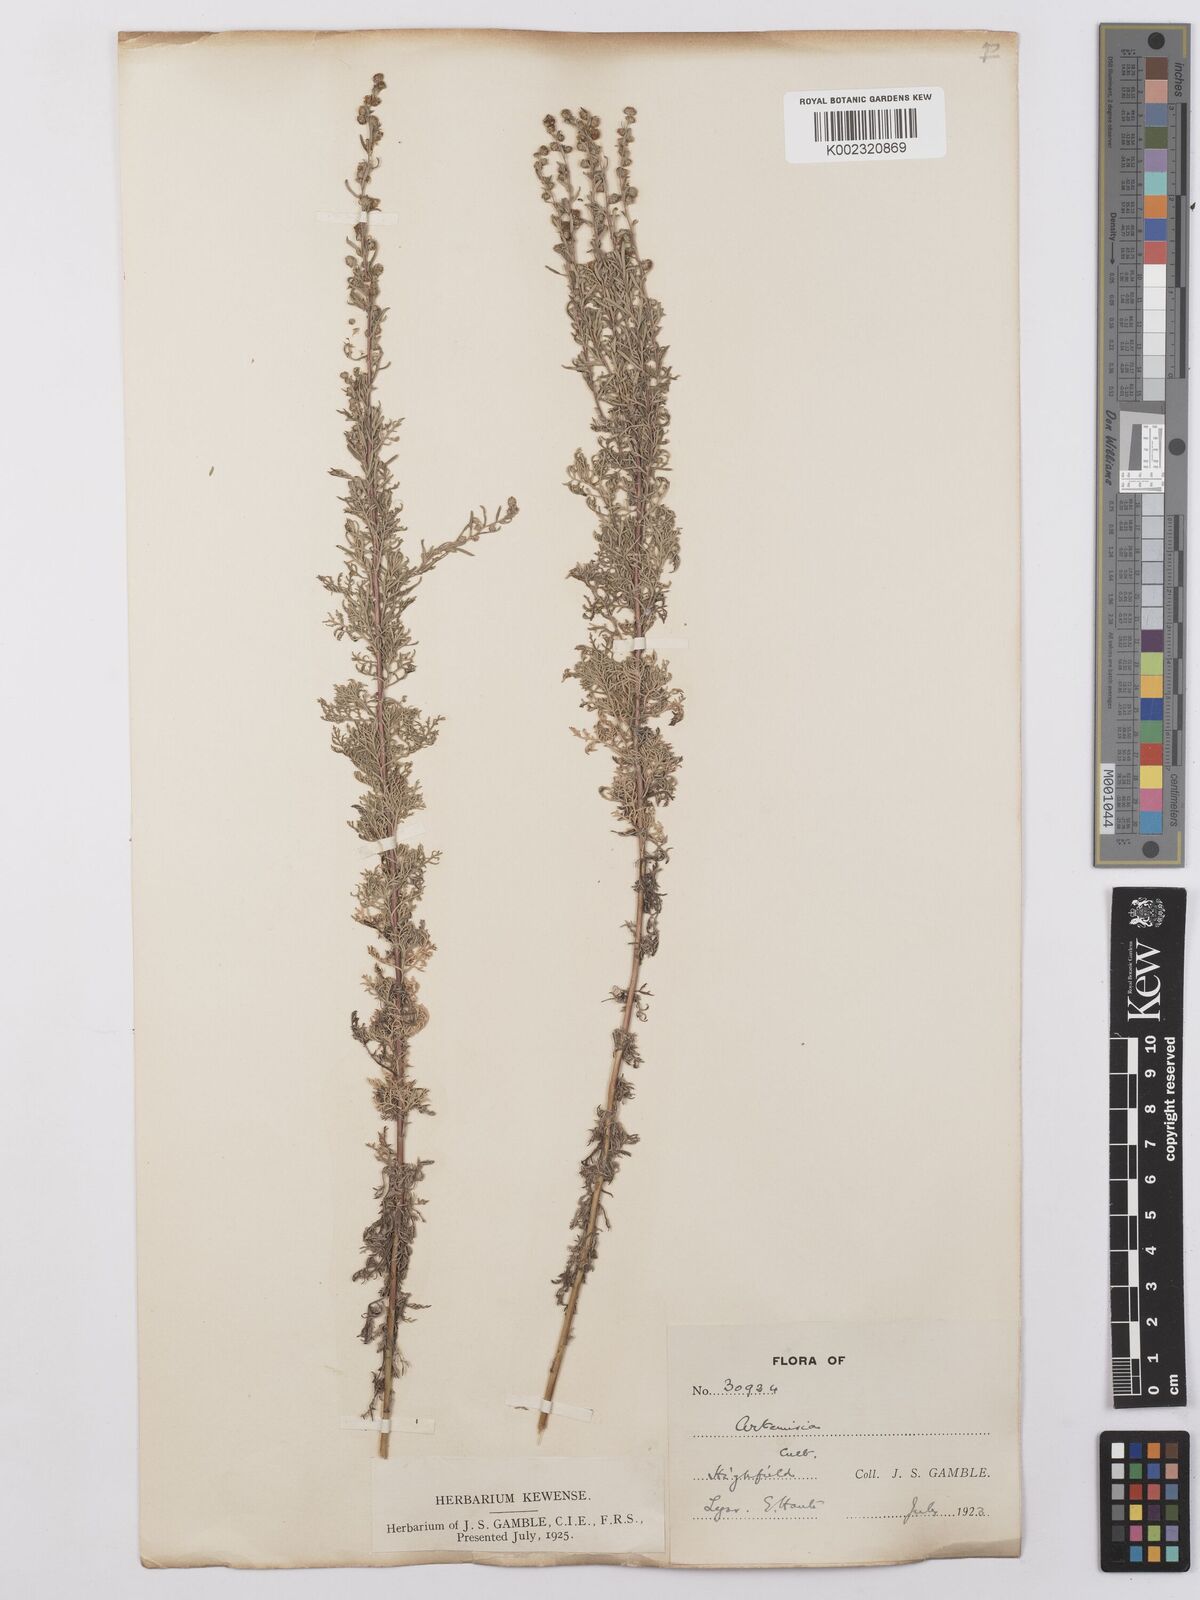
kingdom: Plantae
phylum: Tracheophyta
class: Magnoliopsida
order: Asterales
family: Asteraceae
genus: Artemisia
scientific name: Artemisia maritima
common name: Wormseed
